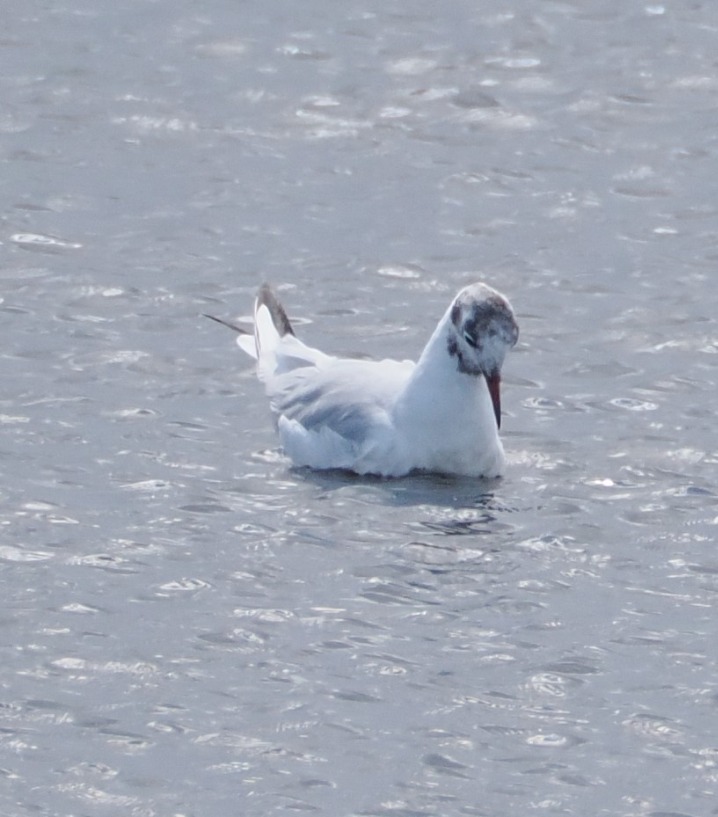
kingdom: Animalia
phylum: Chordata
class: Aves
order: Charadriiformes
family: Laridae
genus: Chroicocephalus
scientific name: Chroicocephalus ridibundus
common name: Hættemåge
